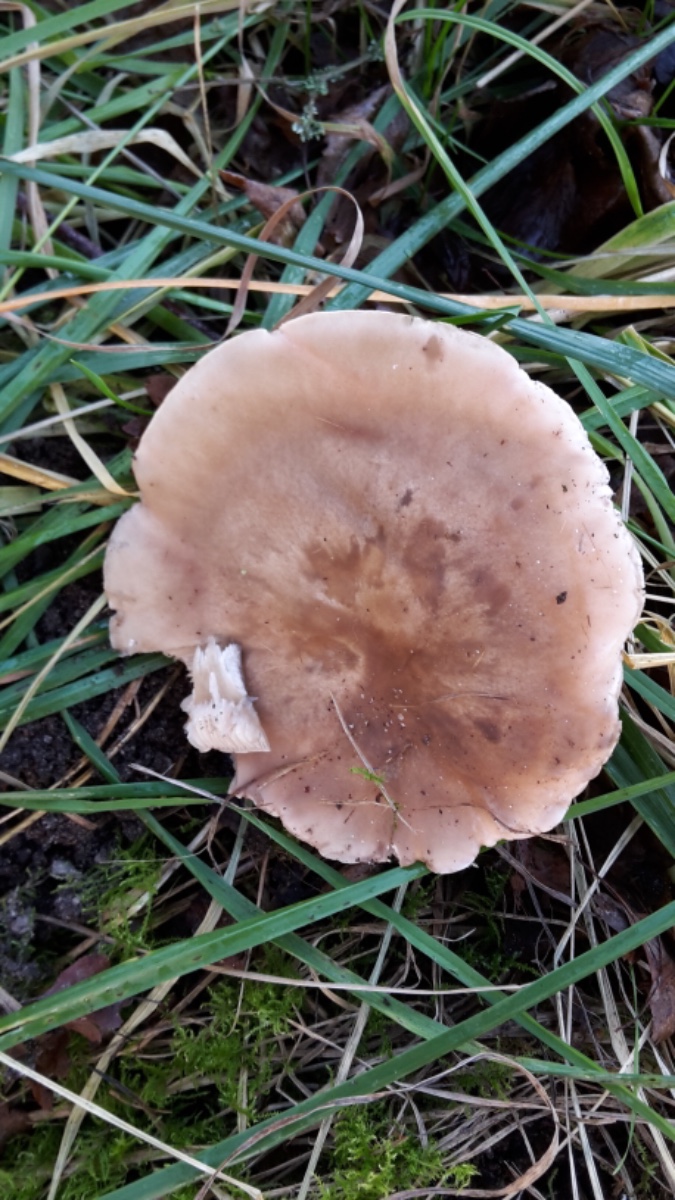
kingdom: Fungi
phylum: Basidiomycota
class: Agaricomycetes
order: Agaricales
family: Tricholomataceae
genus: Lepista
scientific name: Lepista personata
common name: bleg hekseringshat
